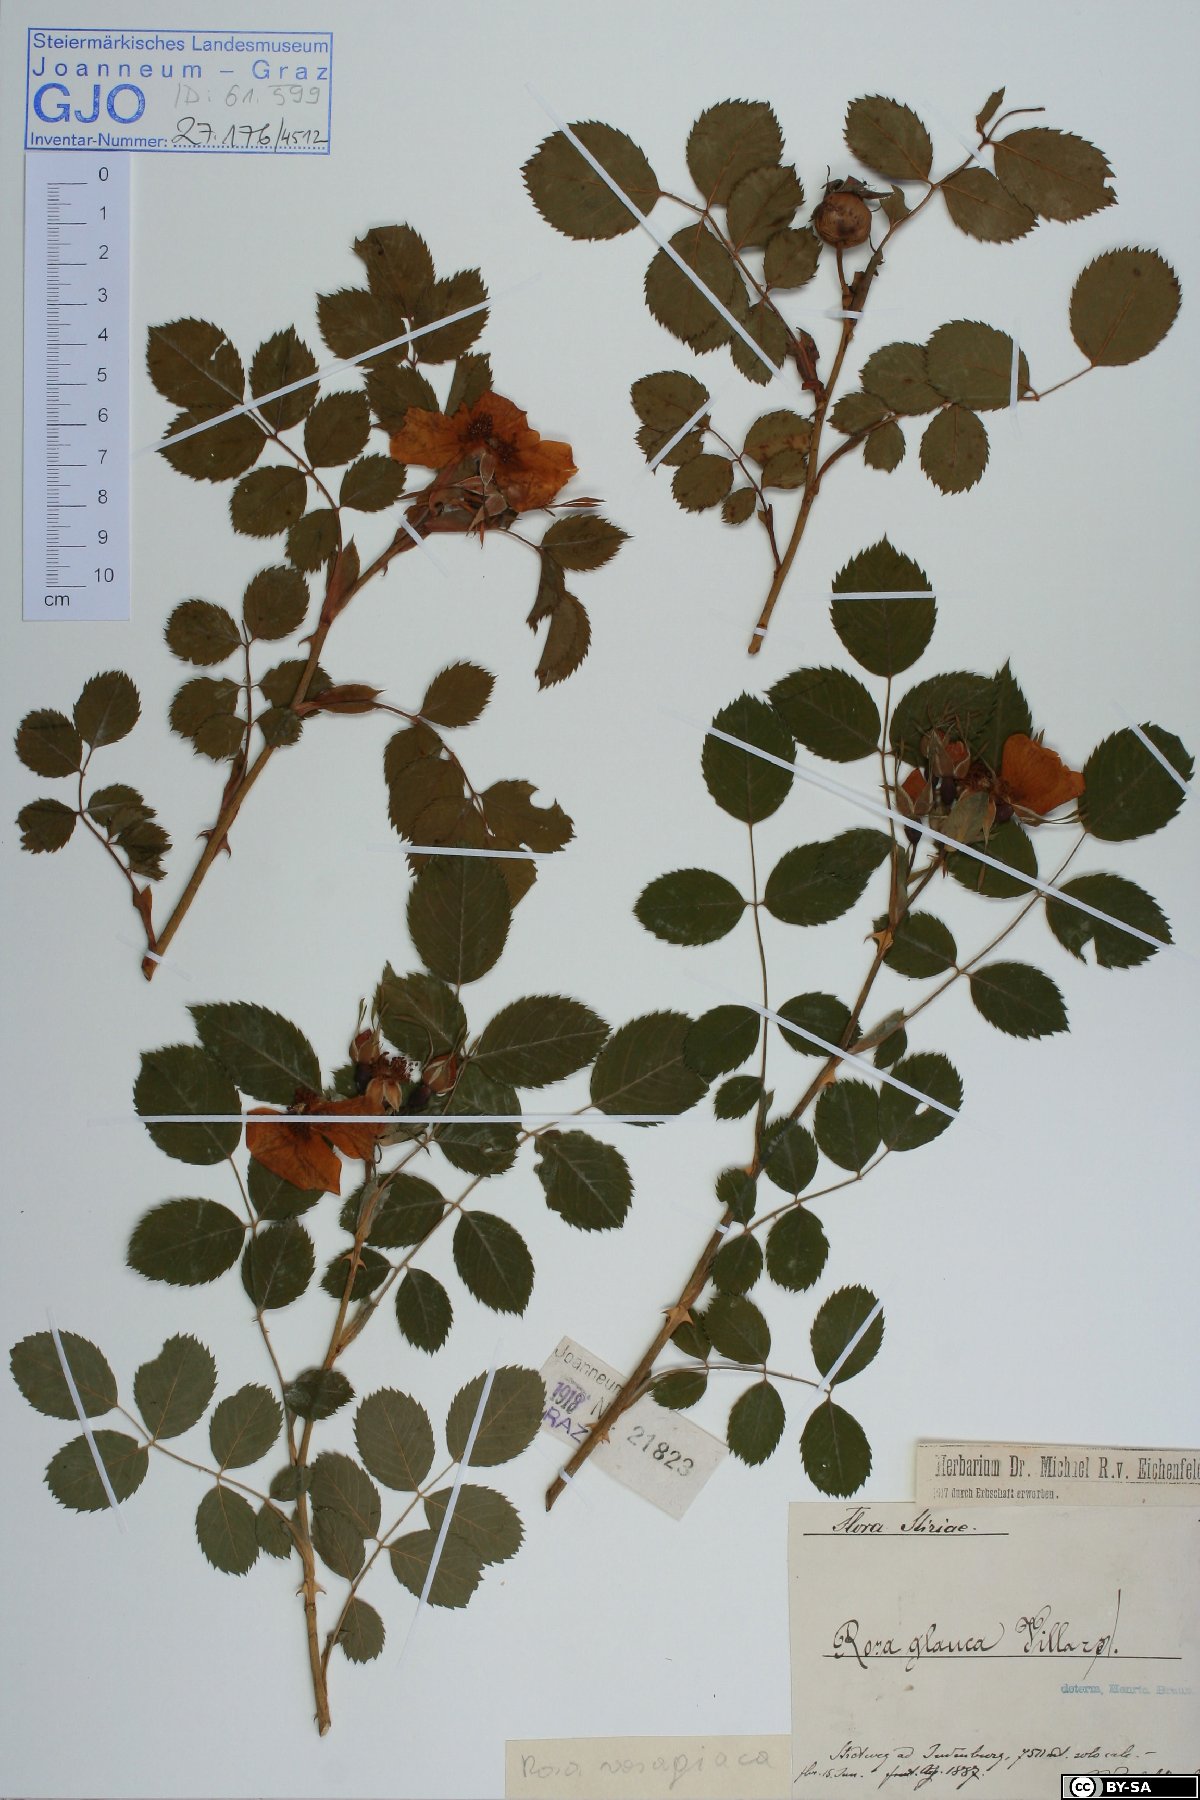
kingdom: Plantae
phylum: Tracheophyta
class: Magnoliopsida
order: Rosales
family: Rosaceae
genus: Rosa
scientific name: Rosa vosagiaca
